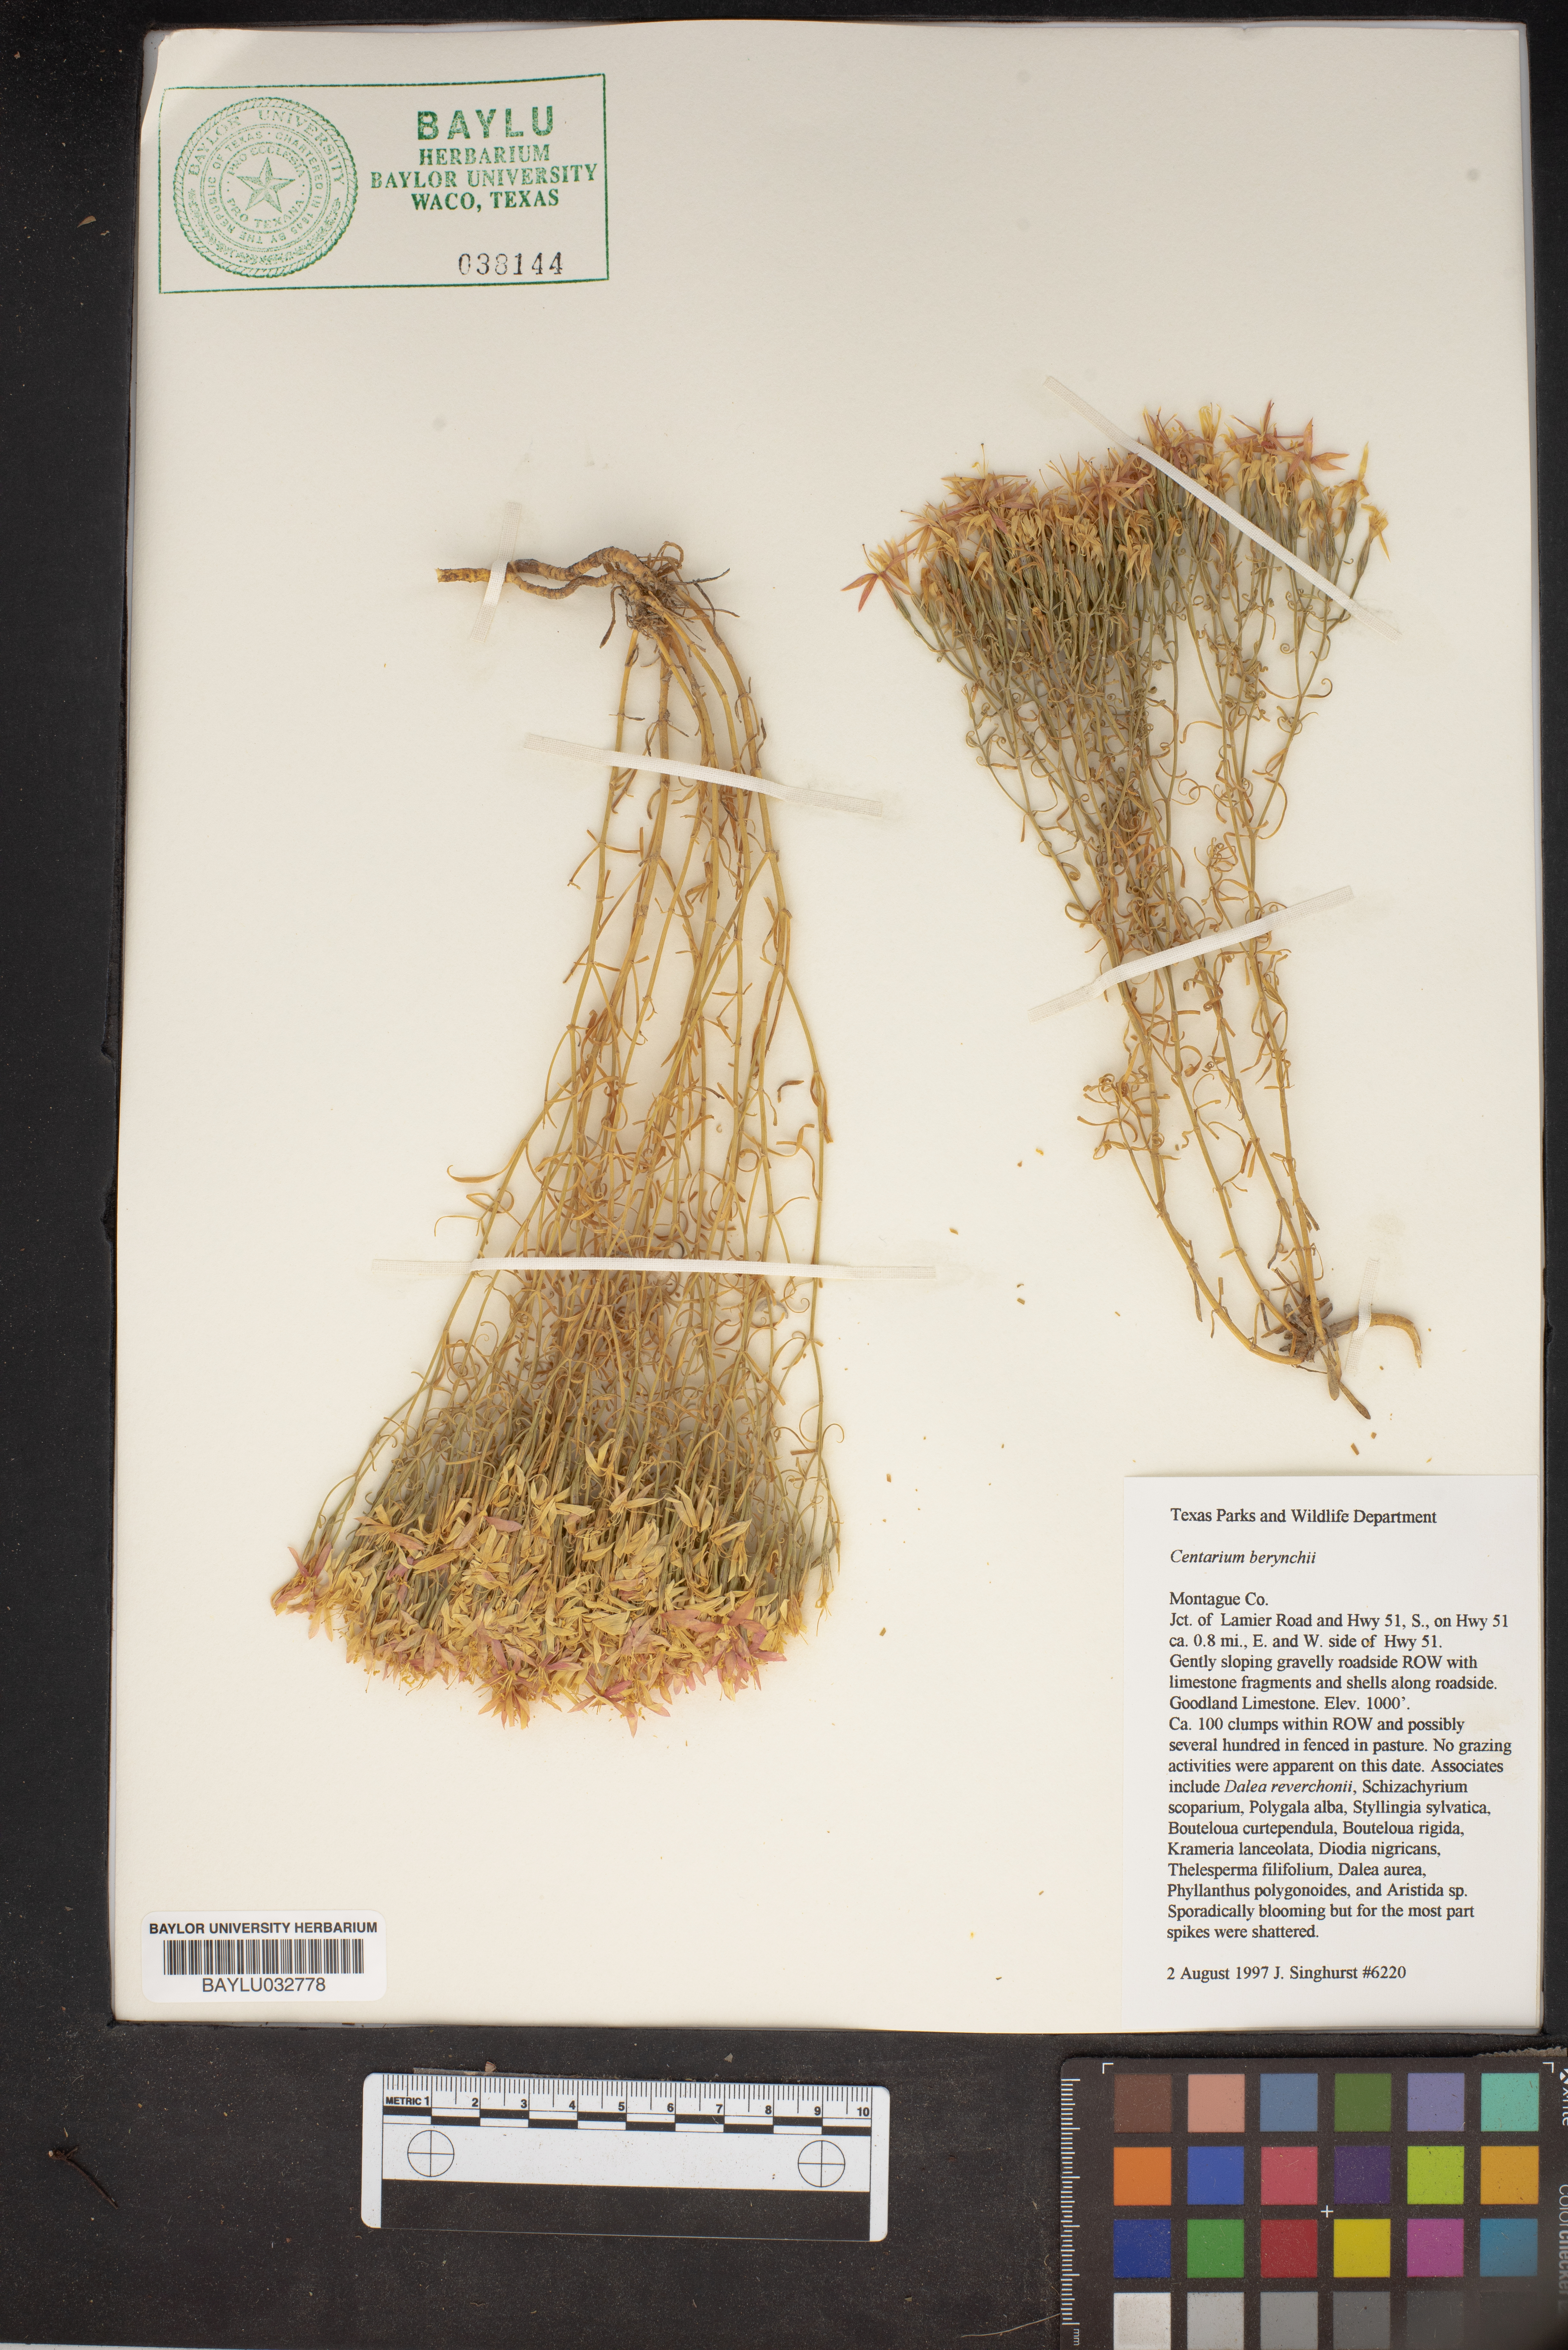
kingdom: Plantae
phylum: Tracheophyta
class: Magnoliopsida
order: Gentianales
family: Gentianaceae
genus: Zeltnera
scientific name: Zeltnera beyrichii
